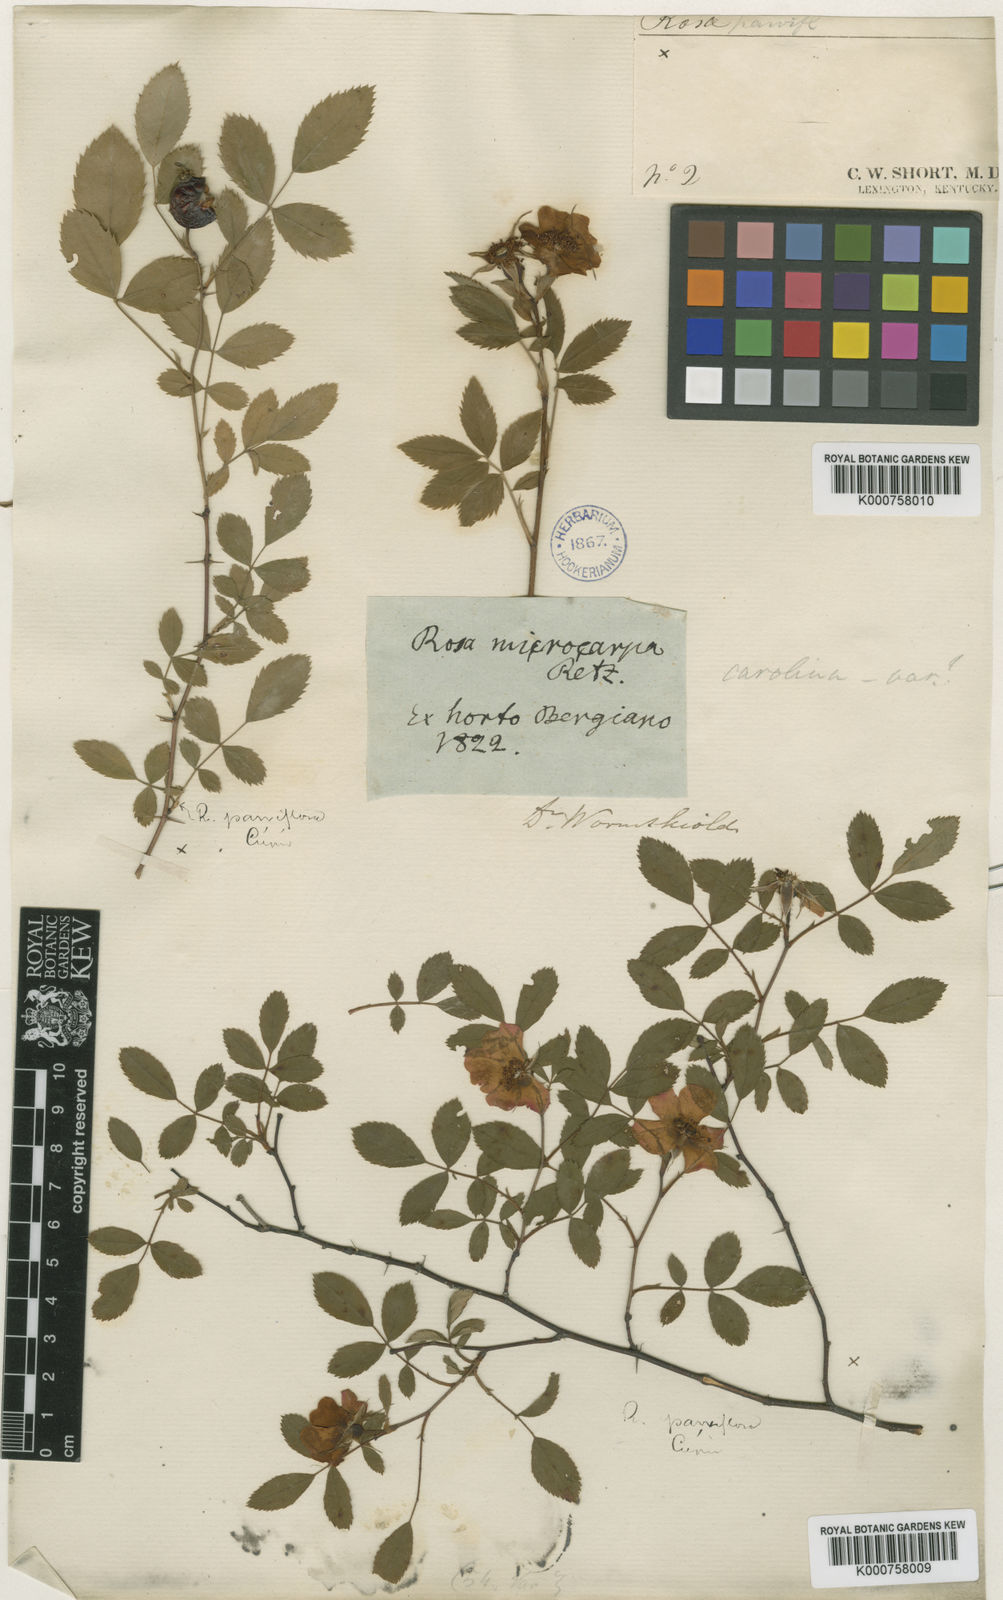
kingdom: Plantae
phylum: Tracheophyta
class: Magnoliopsida
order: Rosales
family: Rosaceae
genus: Rosa
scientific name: Rosa carolina
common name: Pasture rose
